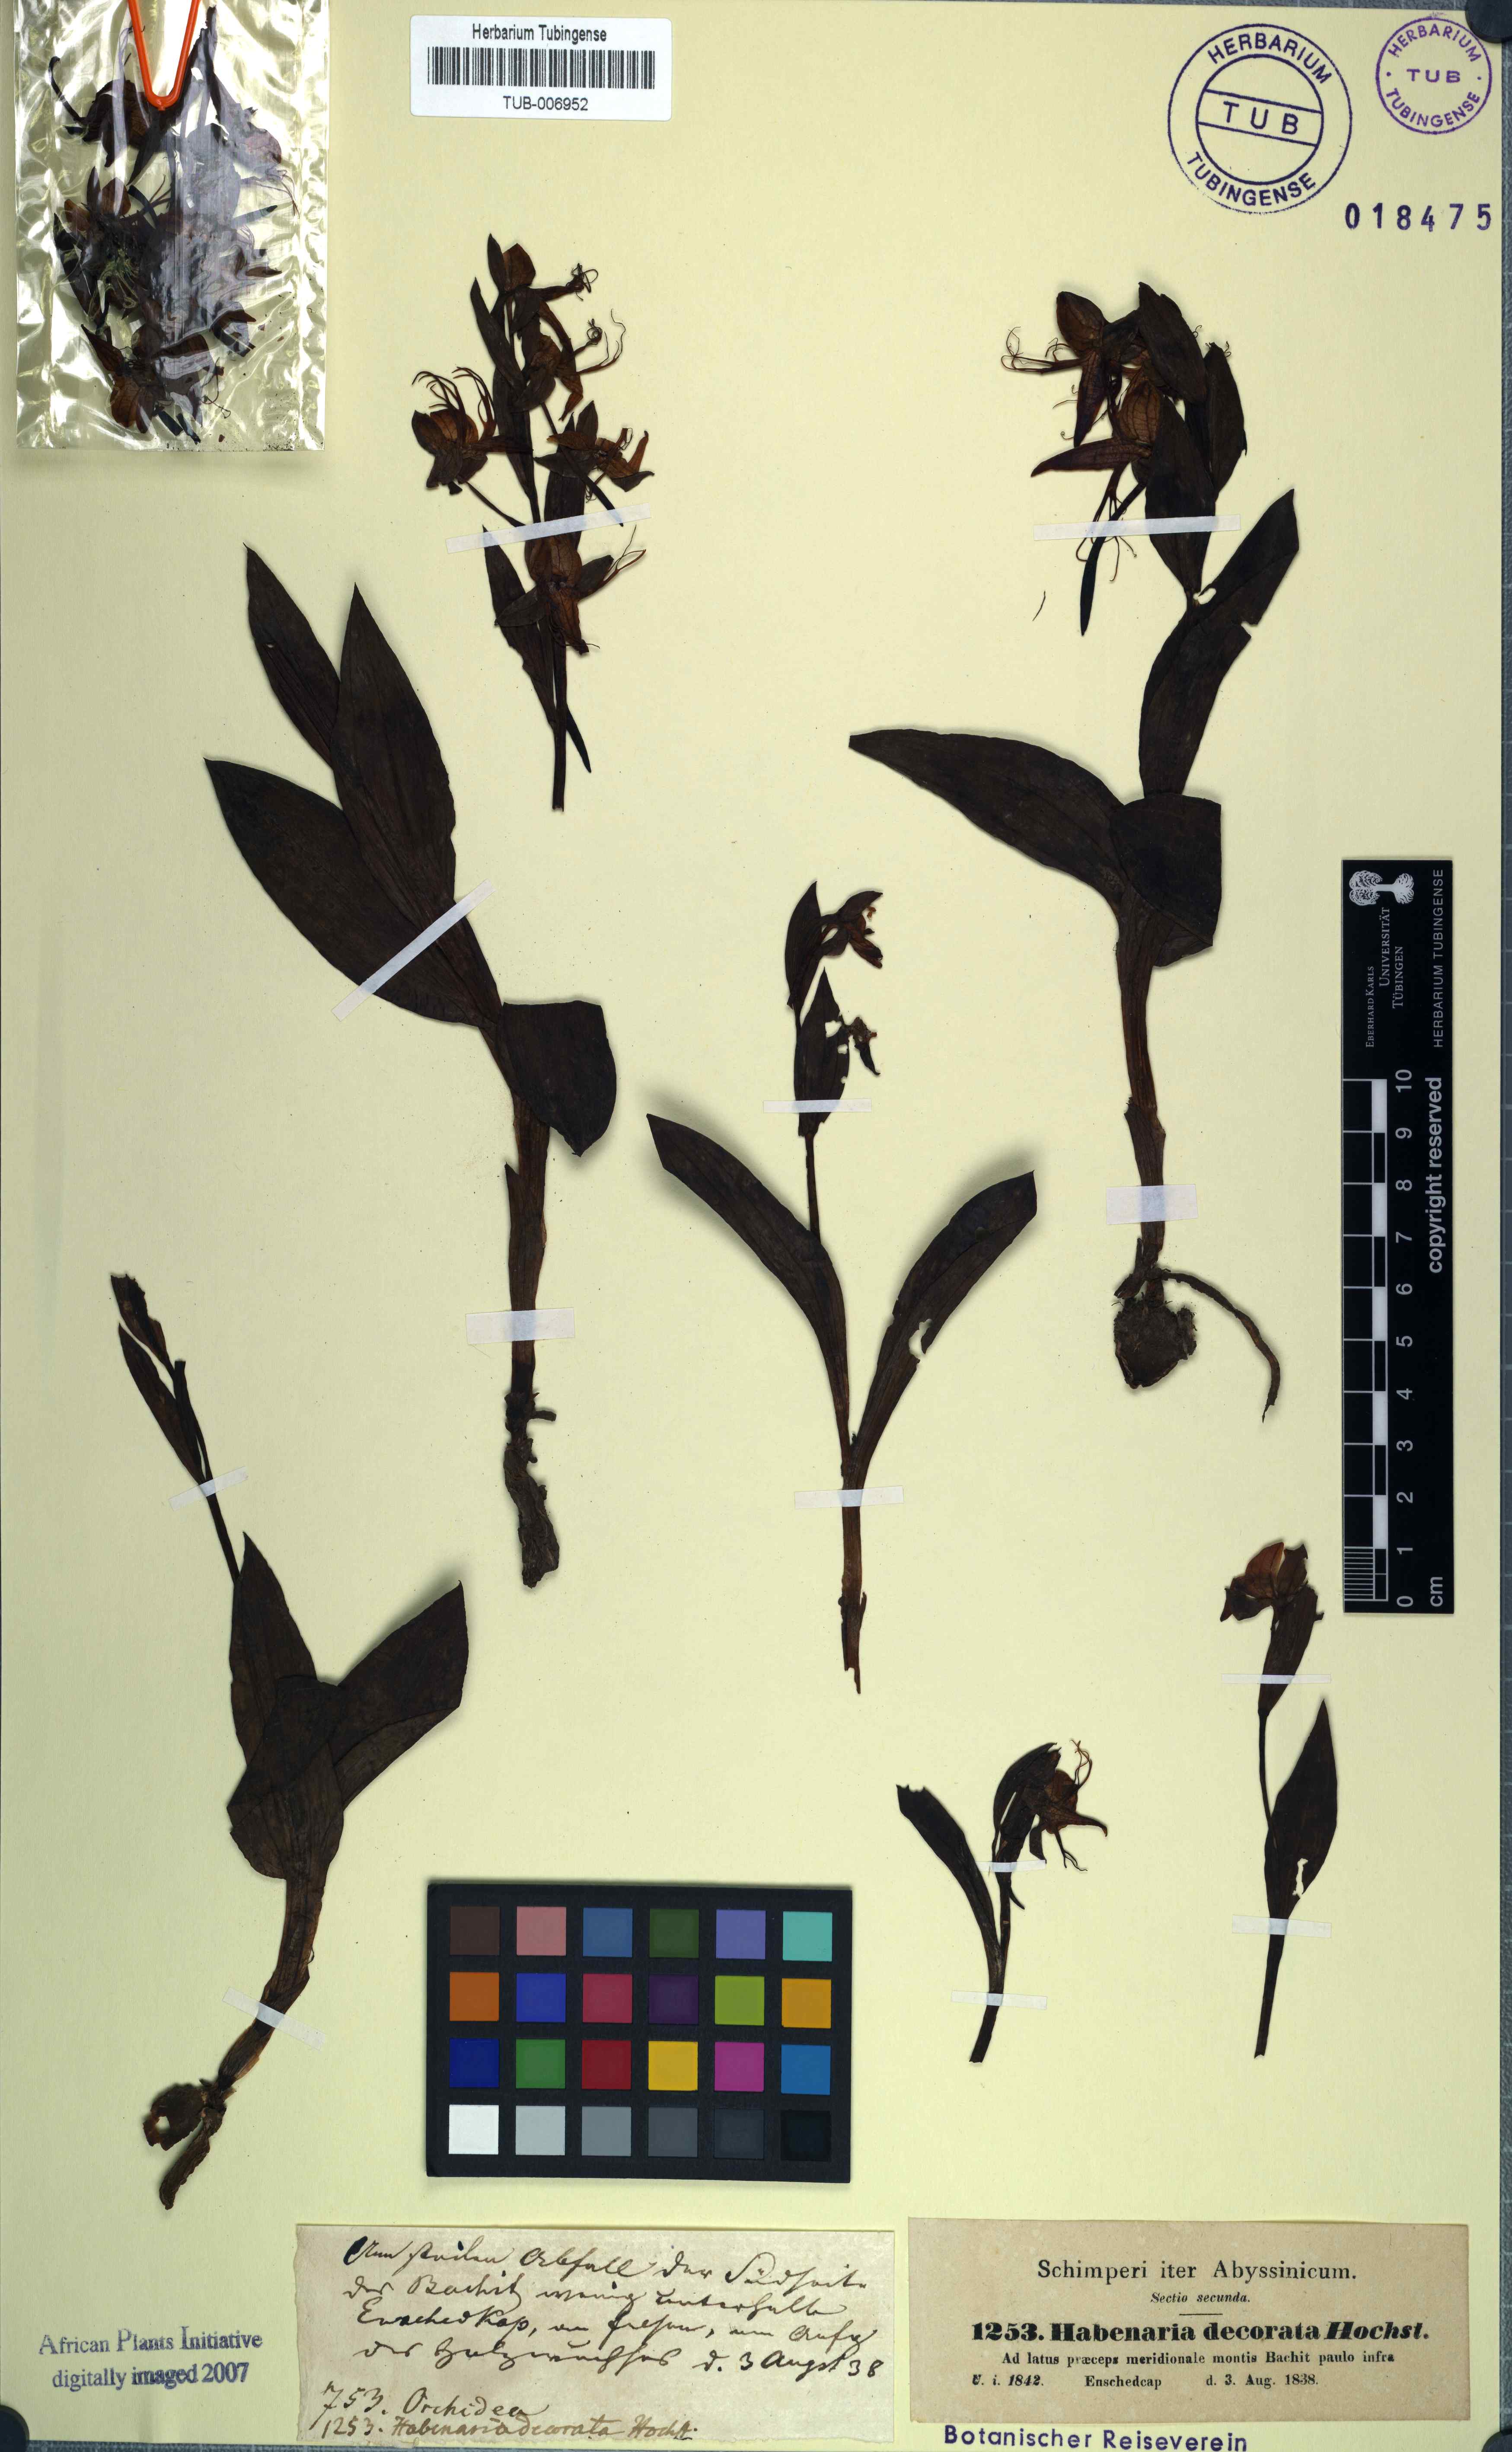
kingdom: Plantae
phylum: Tracheophyta
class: Liliopsida
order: Asparagales
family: Orchidaceae
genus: Habenaria
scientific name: Habenaria decorata
